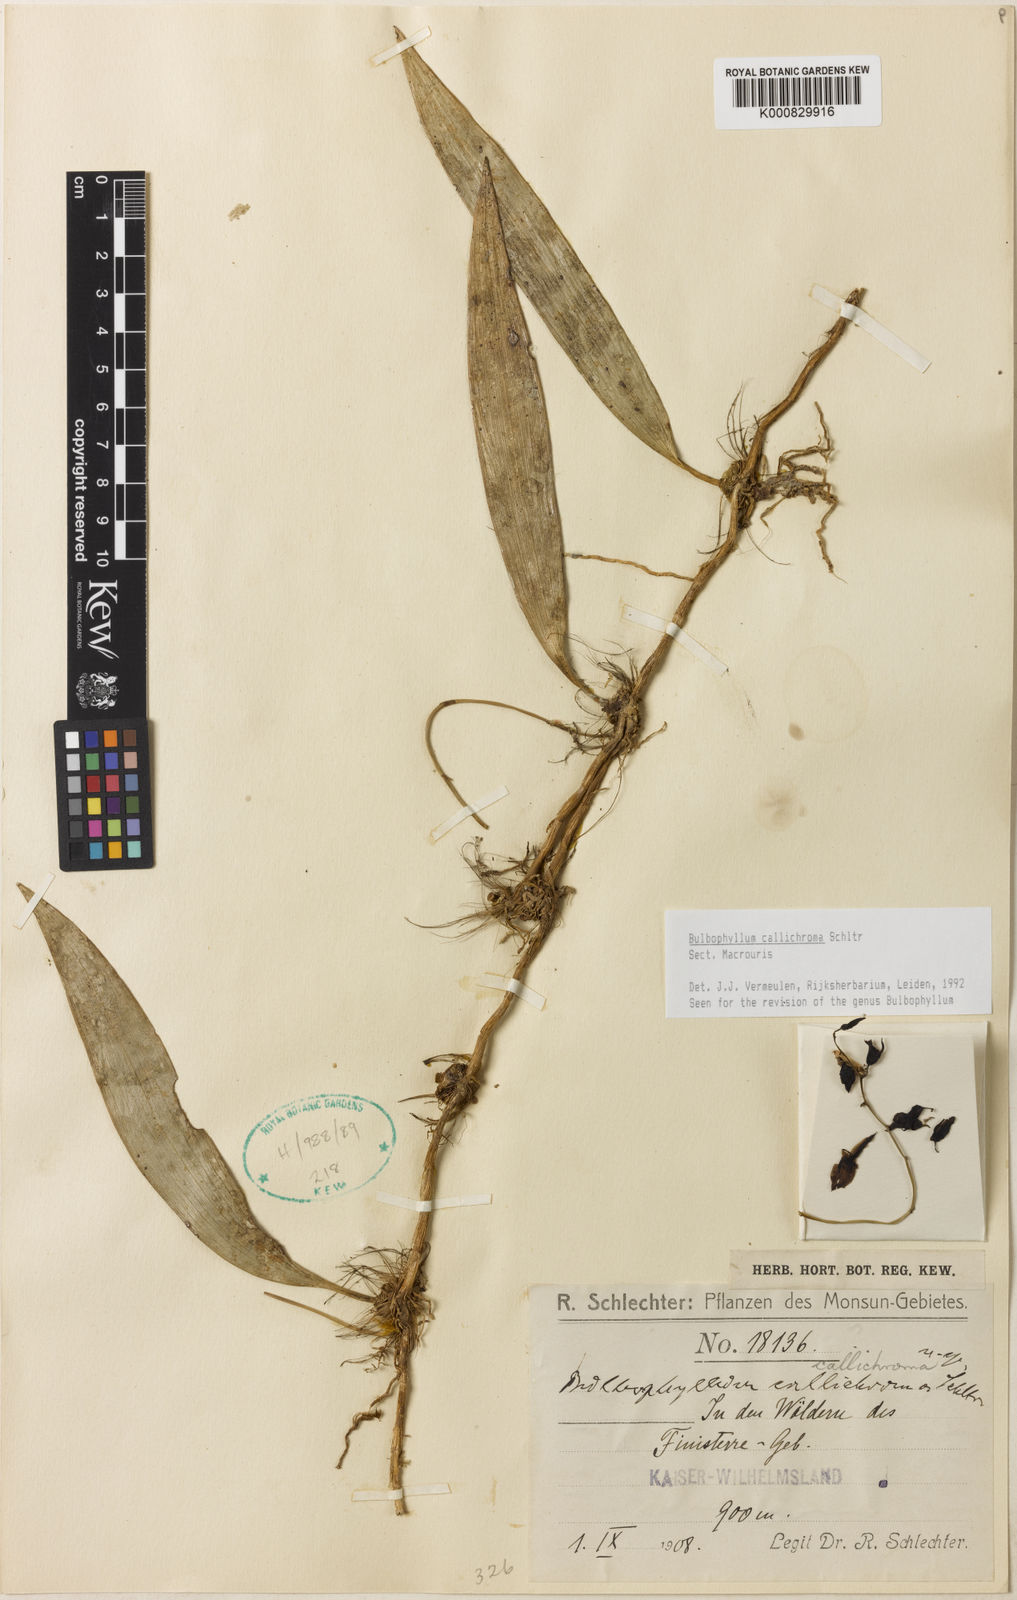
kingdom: Plantae
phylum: Tracheophyta
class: Liliopsida
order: Asparagales
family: Orchidaceae
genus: Bulbophyllum
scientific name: Bulbophyllum
